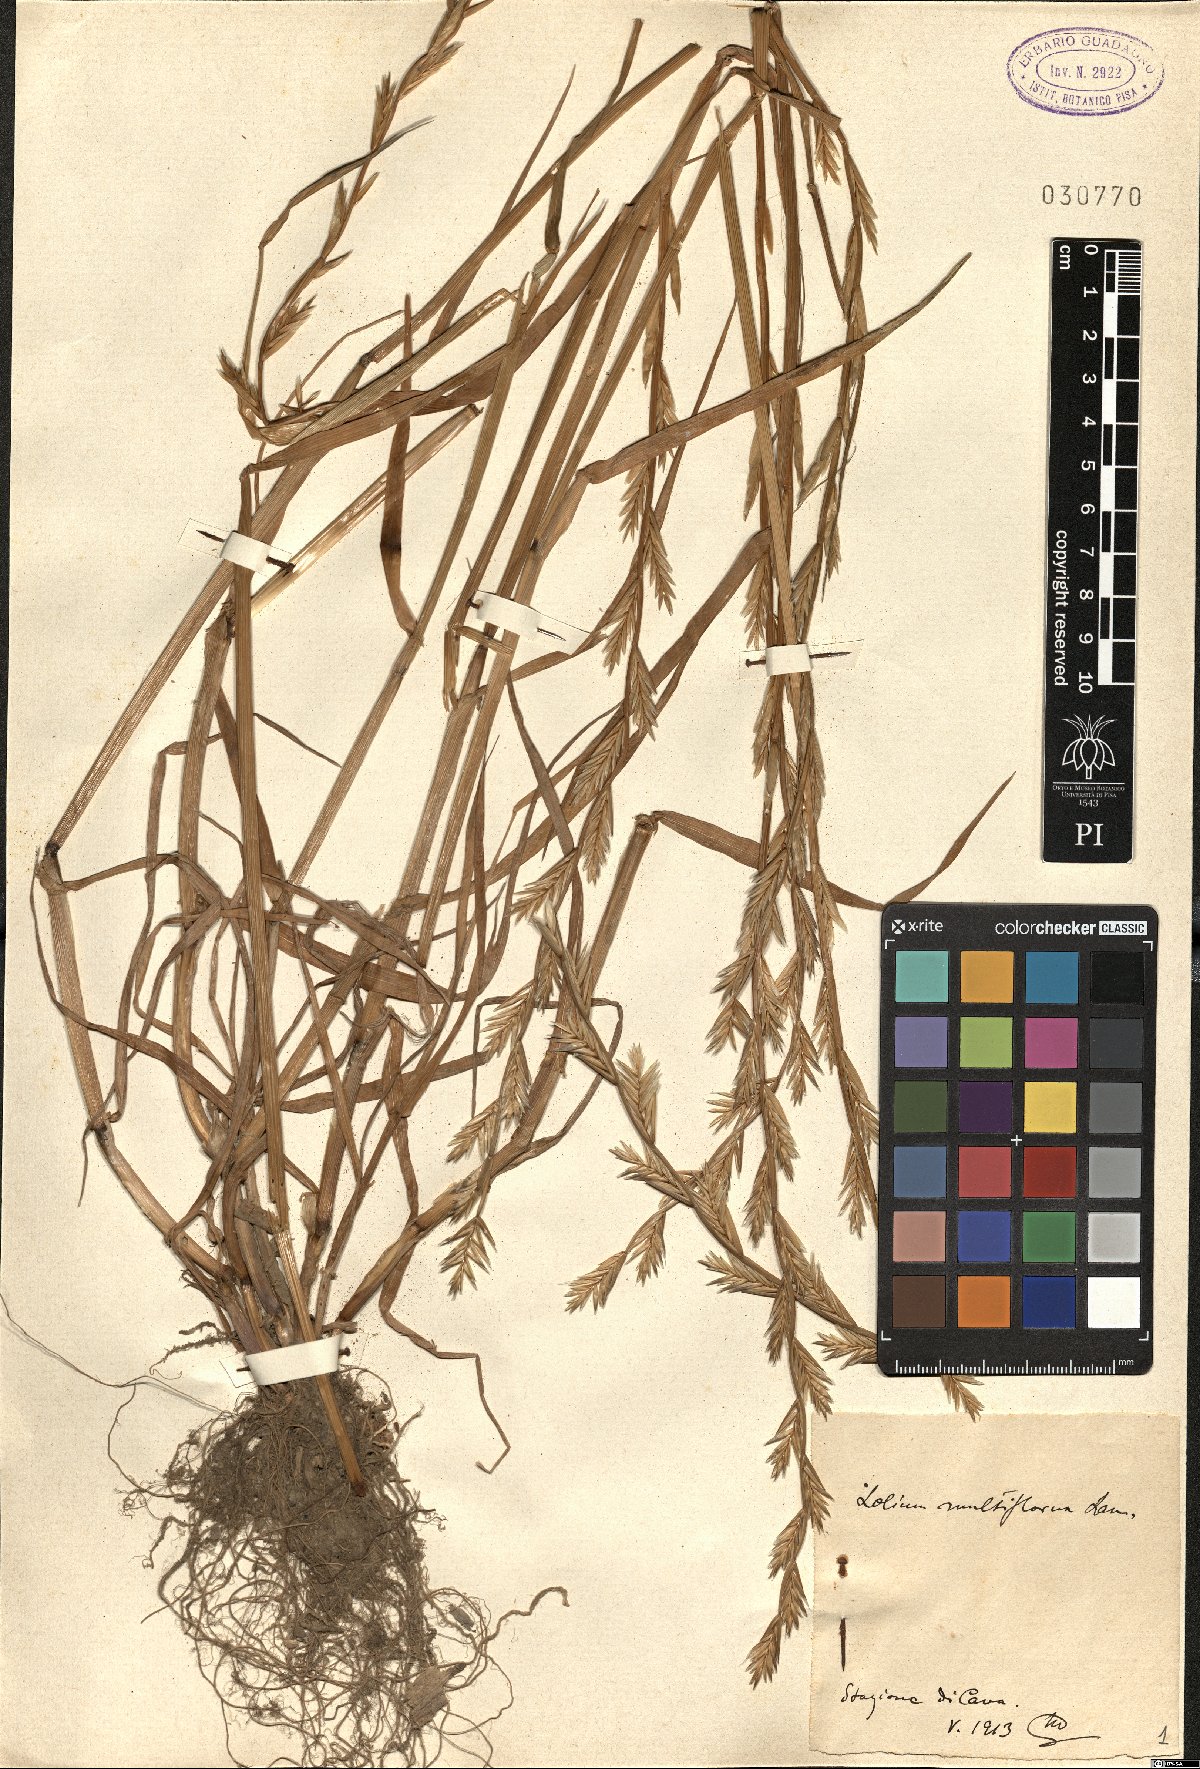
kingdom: Plantae
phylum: Tracheophyta
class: Liliopsida
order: Poales
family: Poaceae
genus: Lolium
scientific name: Lolium multiflorum
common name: Annual ryegrass
